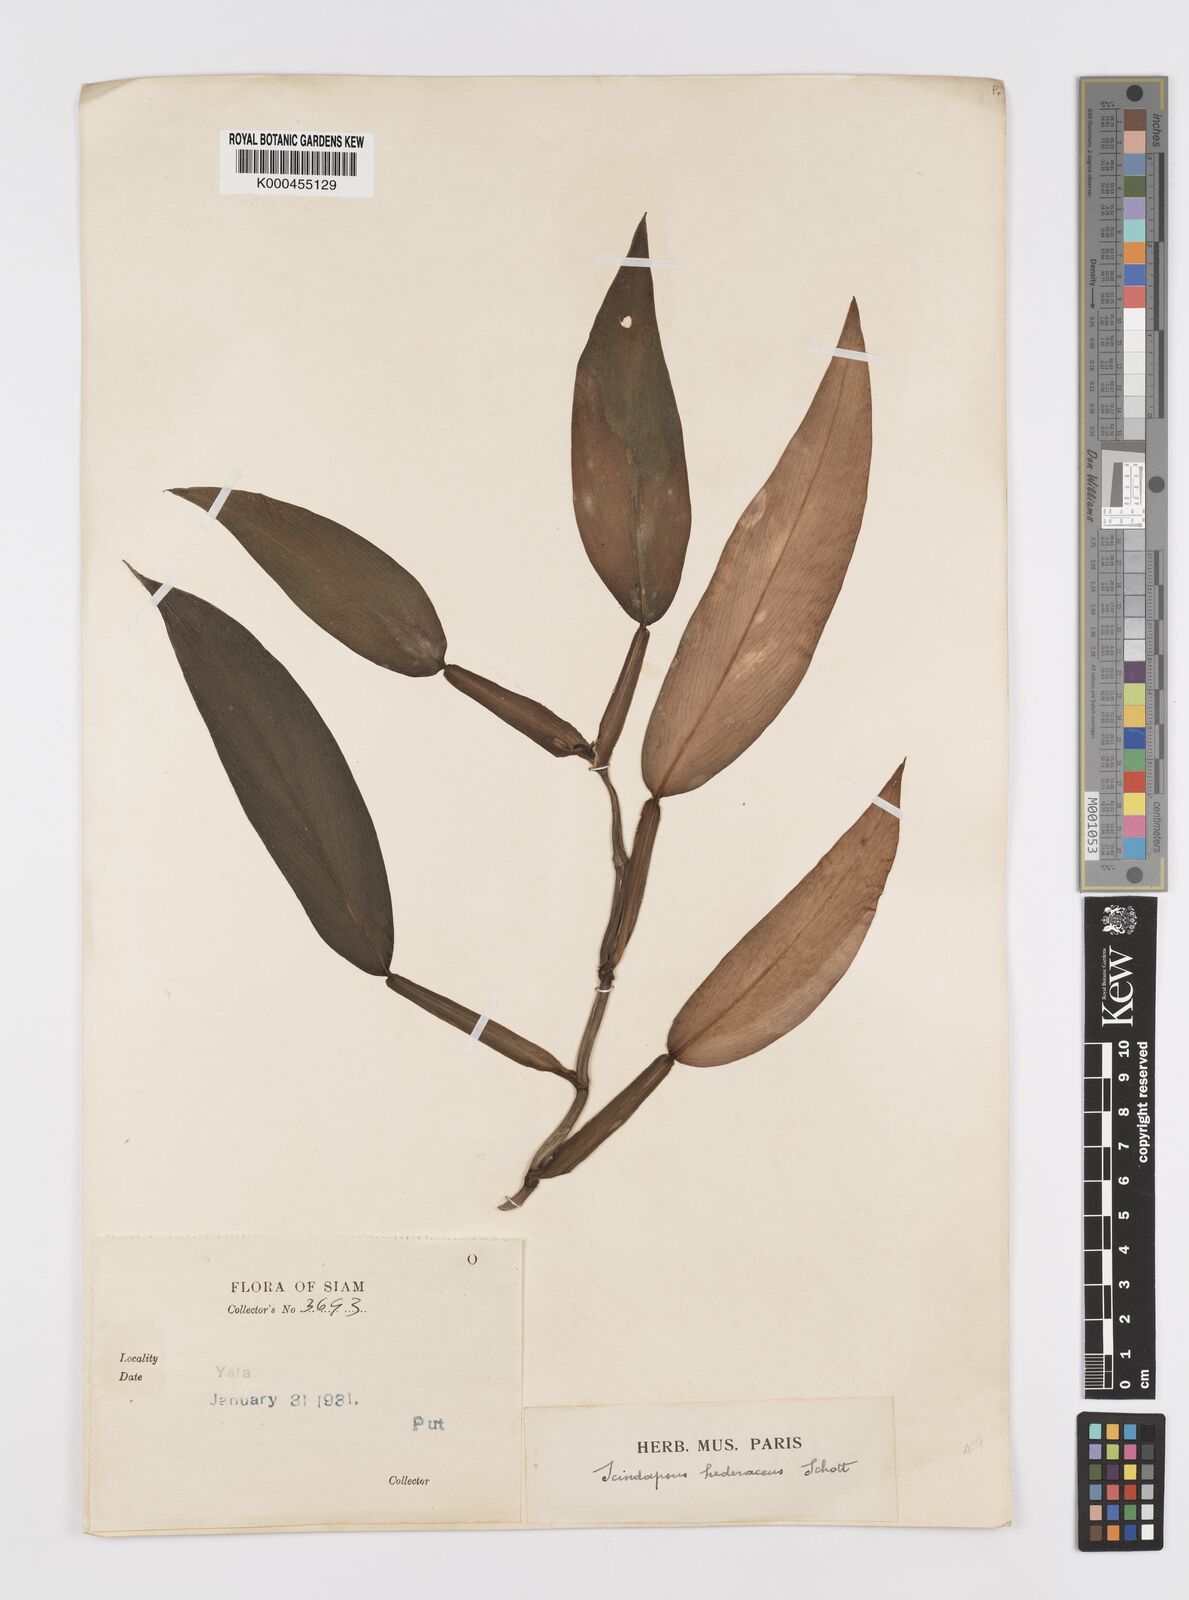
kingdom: Plantae
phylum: Tracheophyta
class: Liliopsida
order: Alismatales
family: Araceae
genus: Scindapsus
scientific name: Scindapsus hederaceus
